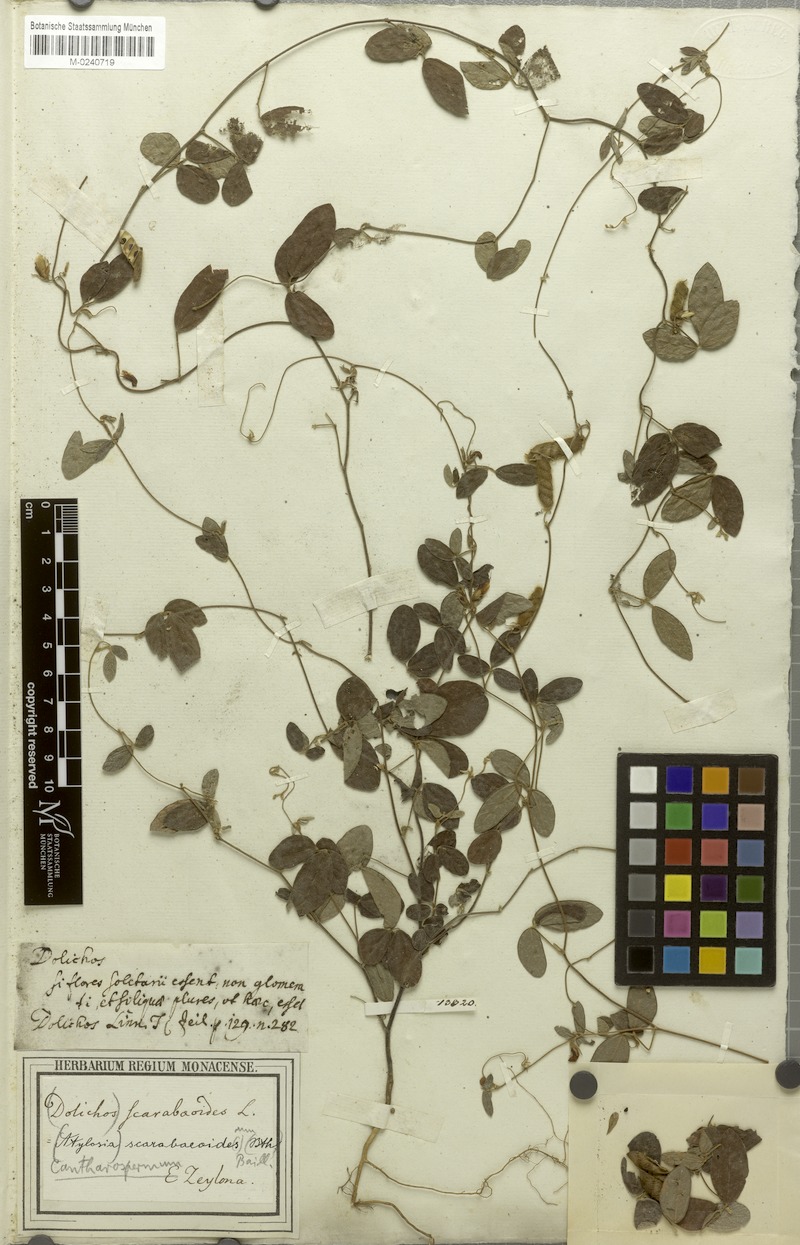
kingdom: Plantae
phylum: Tracheophyta
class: Magnoliopsida
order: Fabales
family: Fabaceae
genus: Cajanus
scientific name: Cajanus scarabaeoides
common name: Showy pigeonpea
